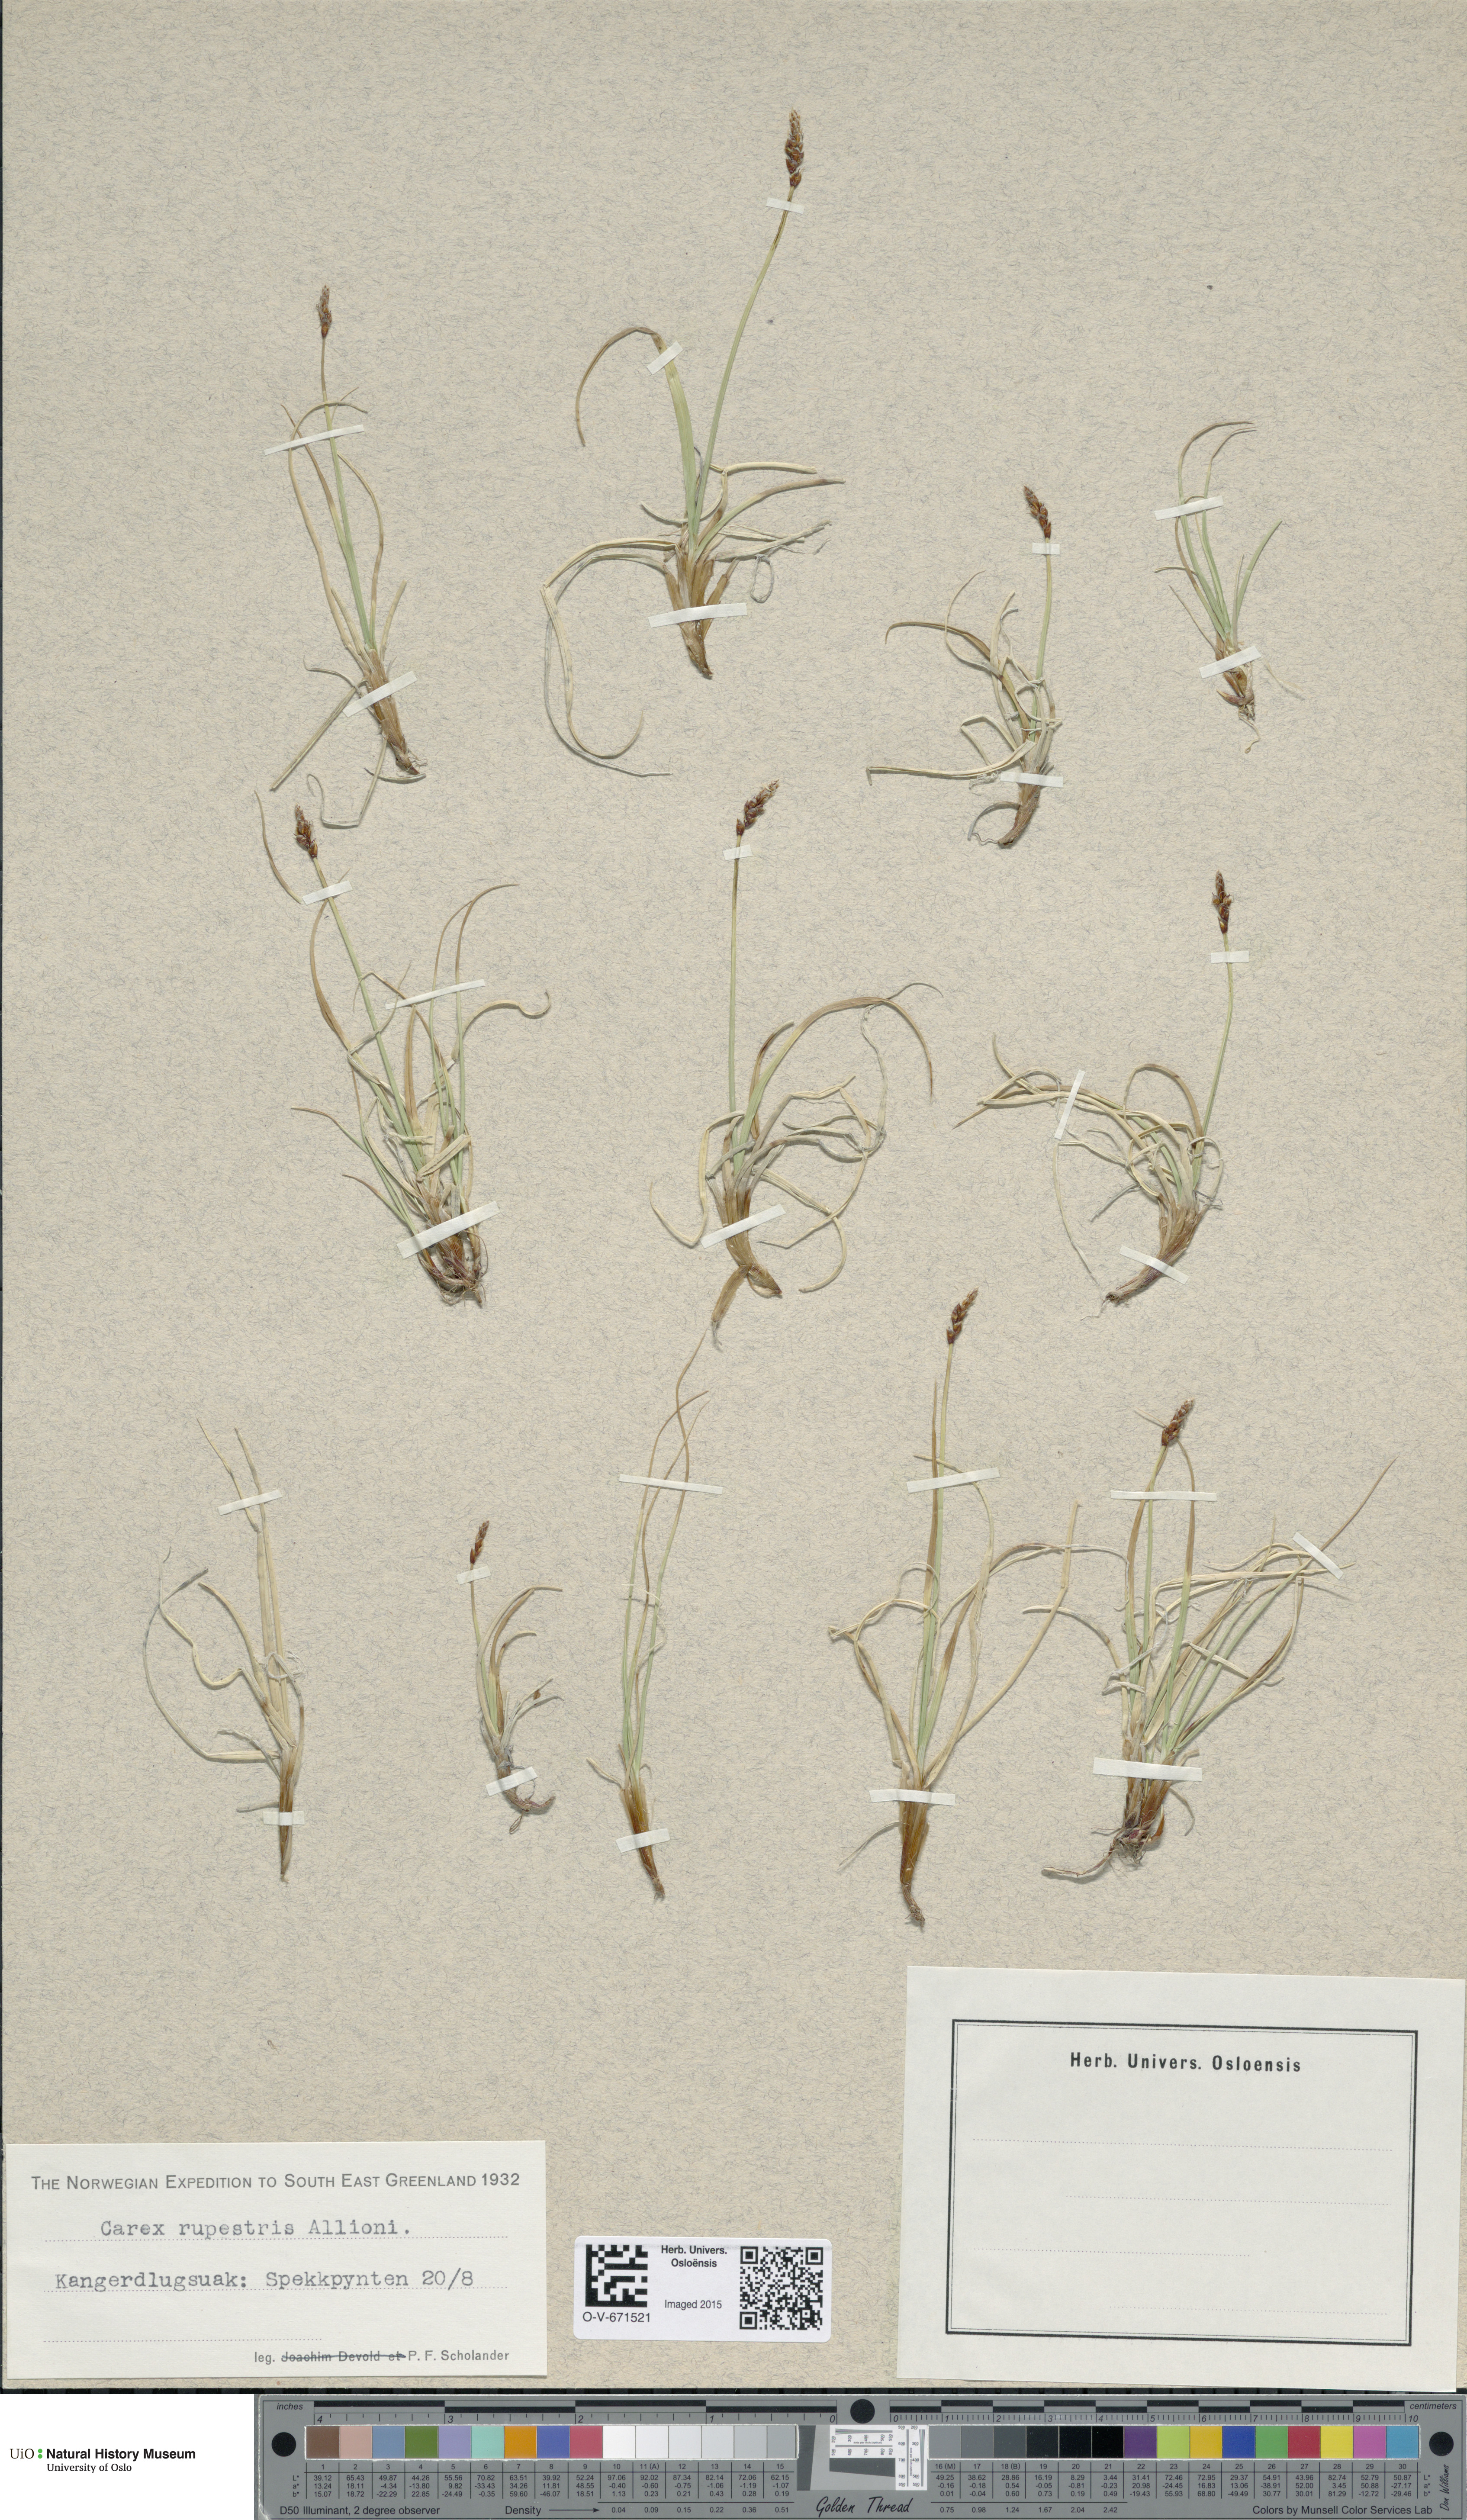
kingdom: Plantae
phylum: Tracheophyta
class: Liliopsida
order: Poales
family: Cyperaceae
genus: Carex
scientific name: Carex rupestris
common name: Rock sedge
